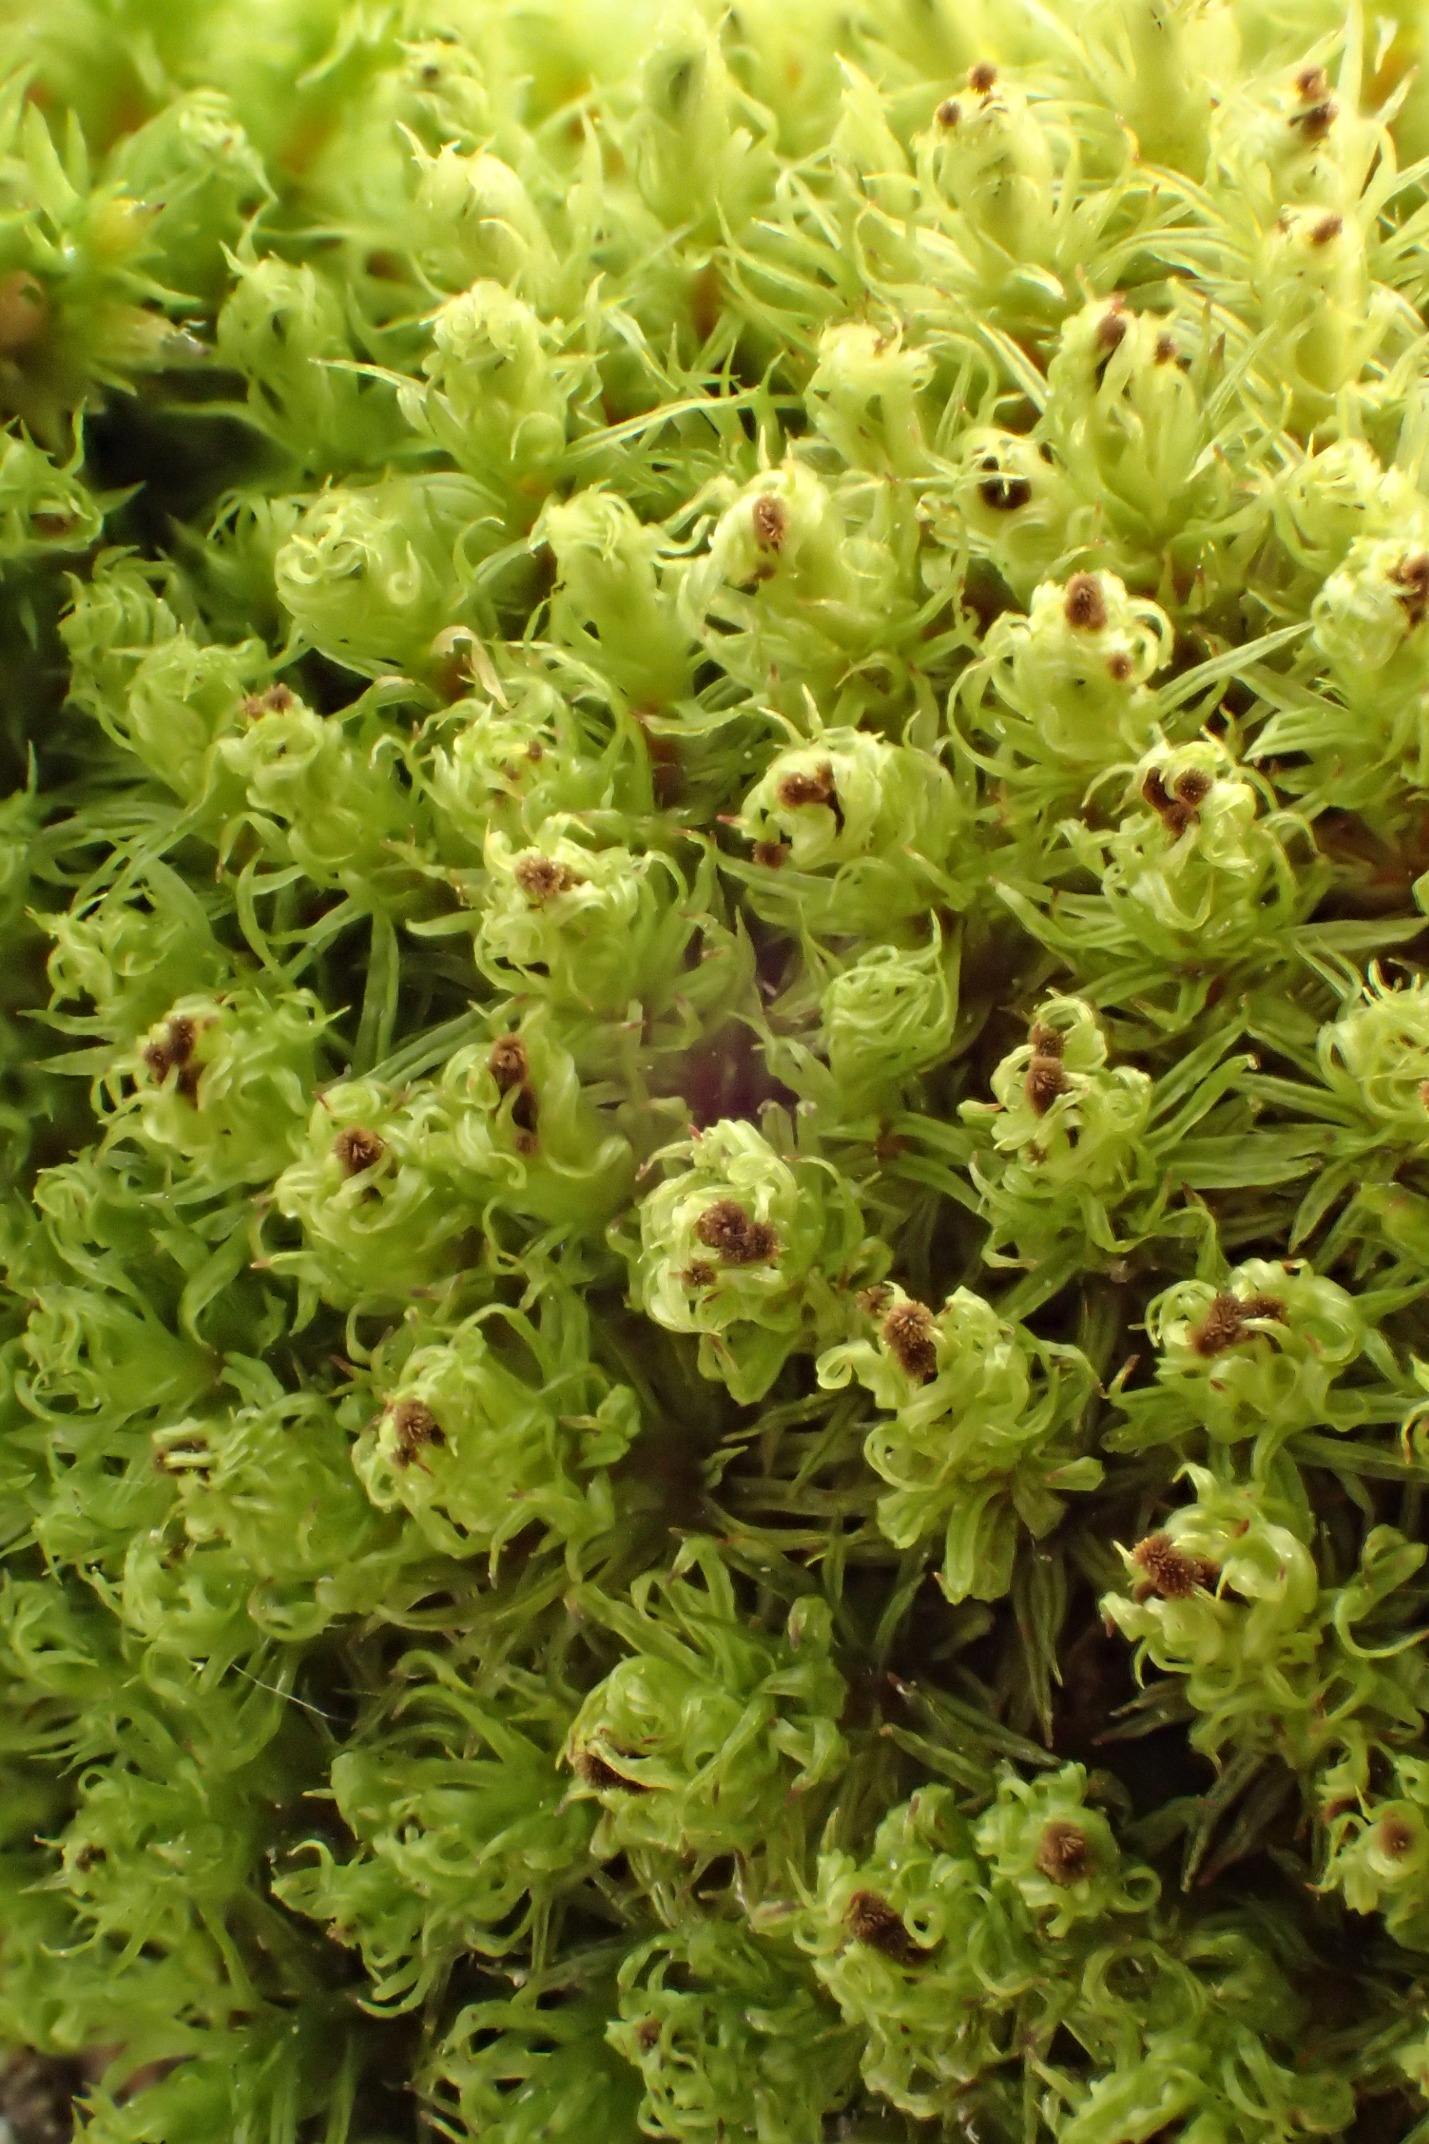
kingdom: Plantae
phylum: Bryophyta
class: Bryopsida
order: Orthotrichales
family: Orthotrichaceae
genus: Plenogemma
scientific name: Plenogemma phyllantha
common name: Stor låddenhætte
